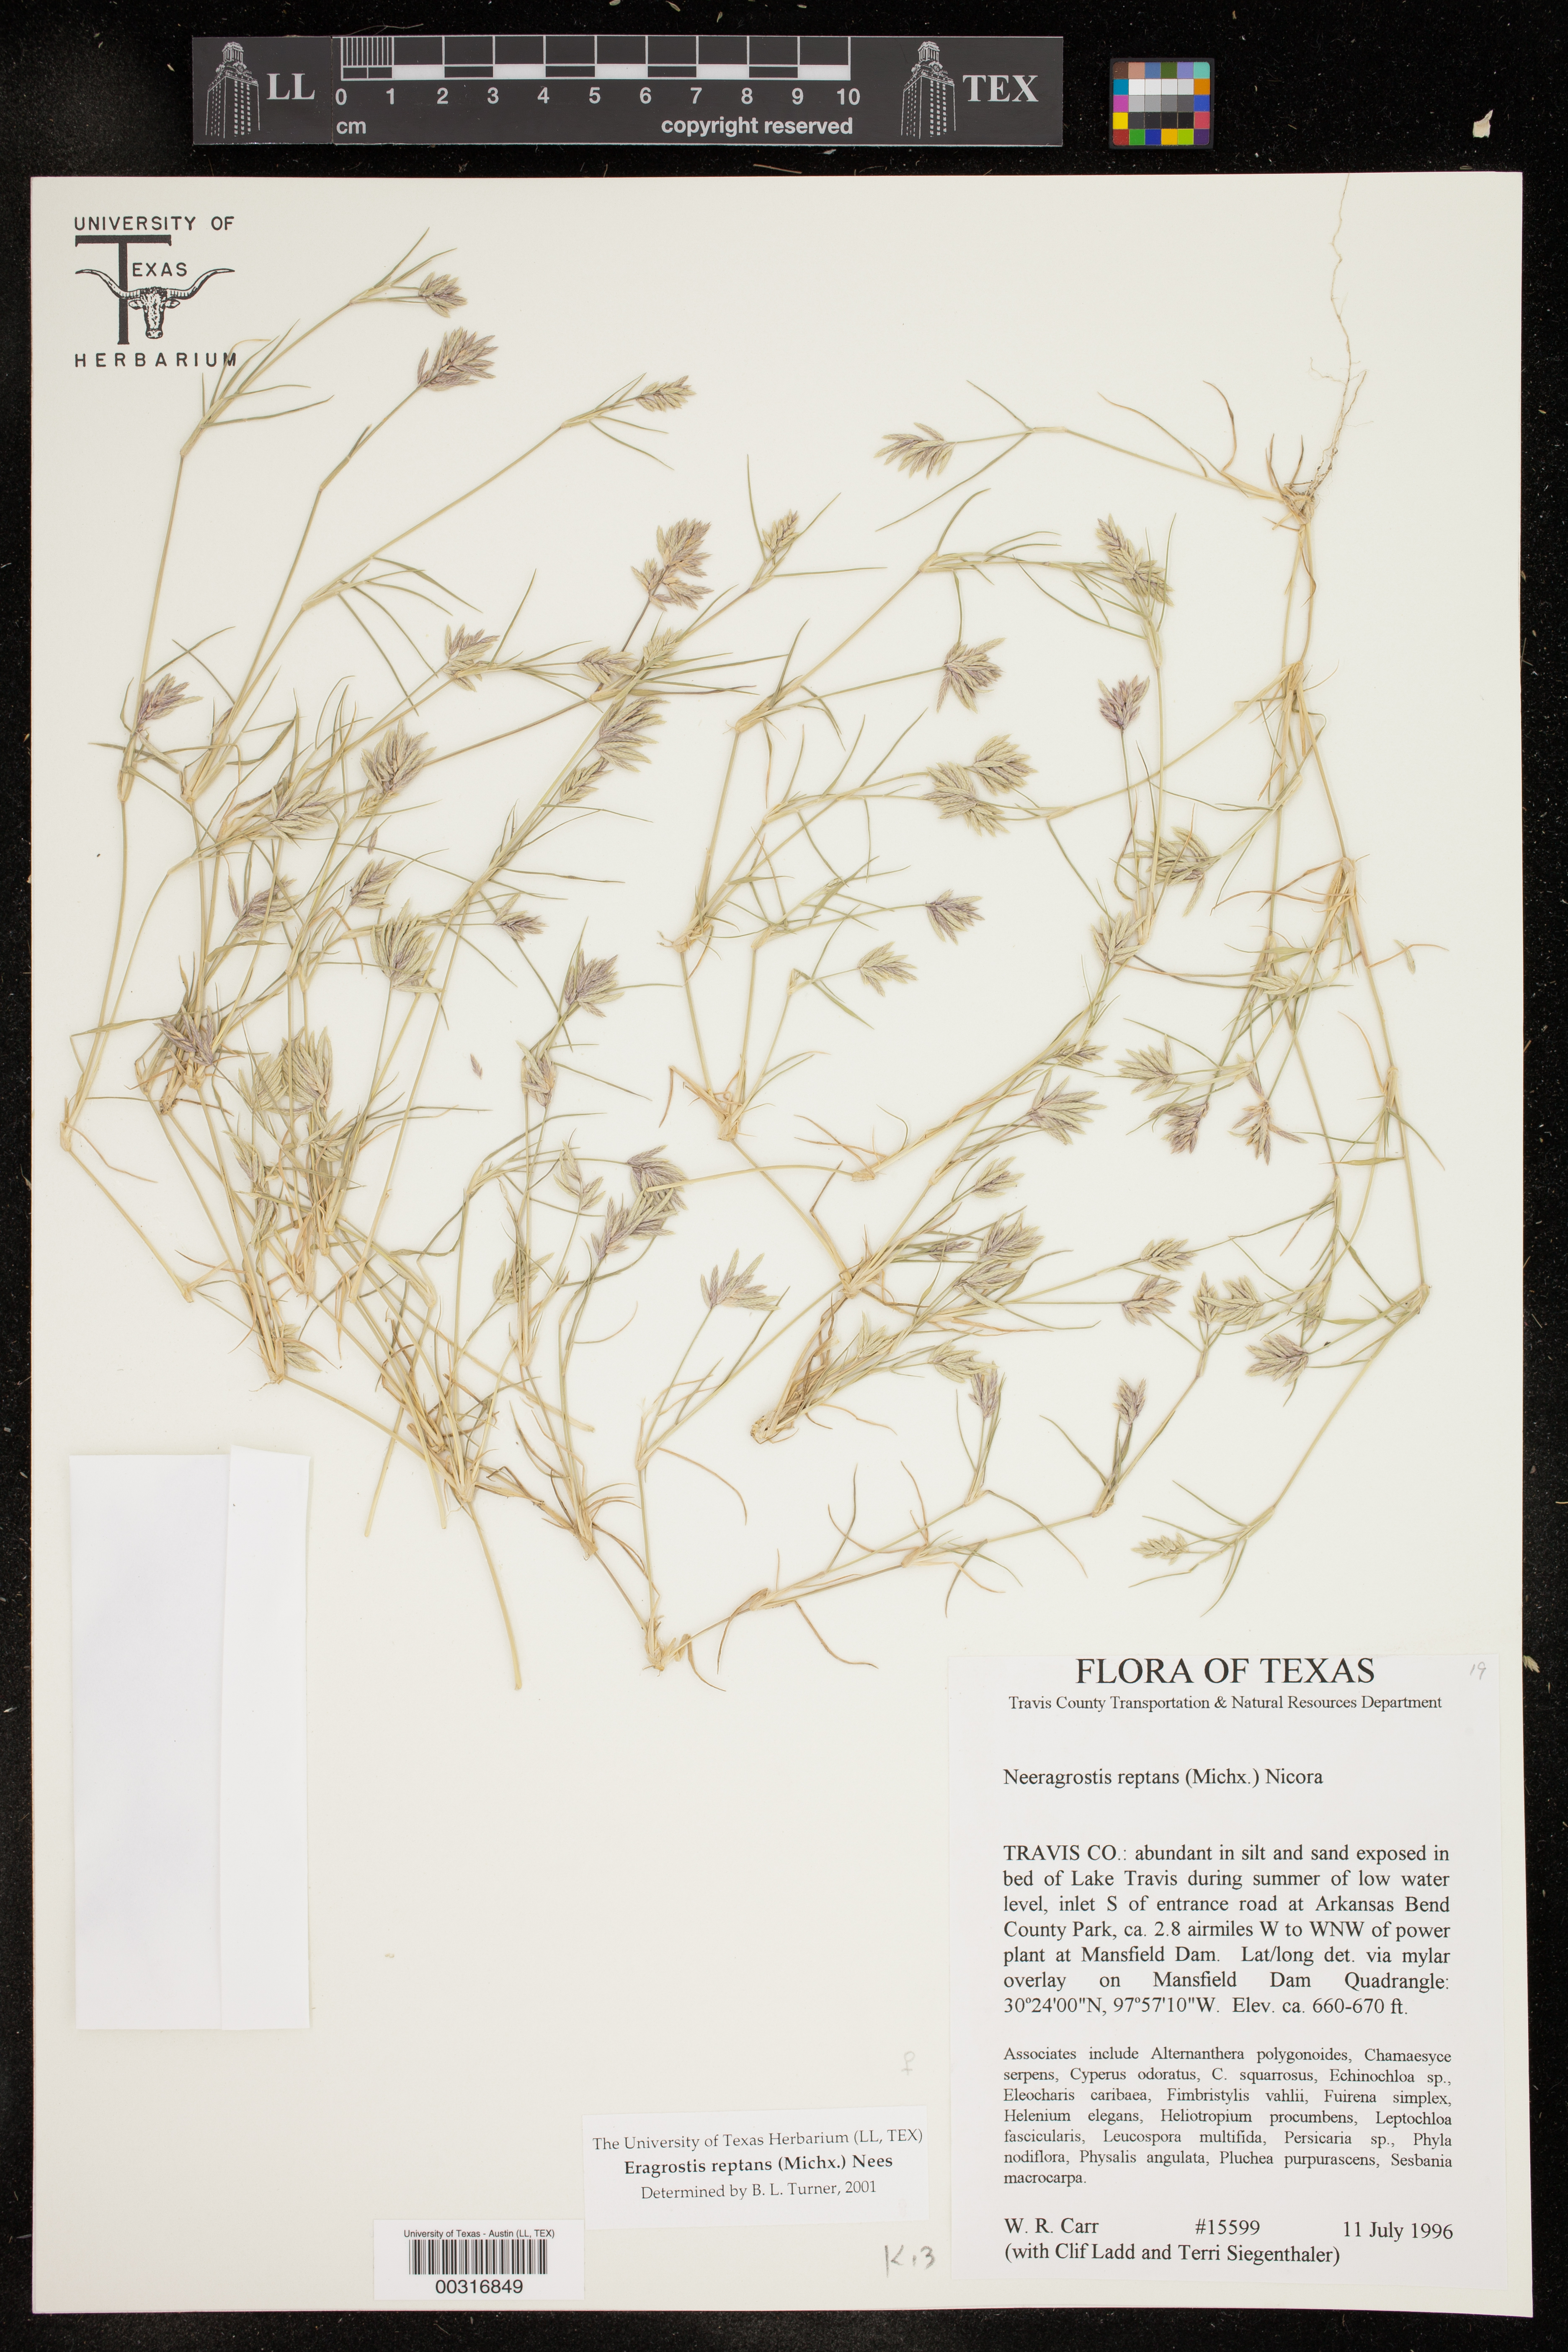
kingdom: Plantae
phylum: Tracheophyta
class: Liliopsida
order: Poales
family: Poaceae
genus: Eragrostis
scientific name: Eragrostis reptans
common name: Creeping love grass
